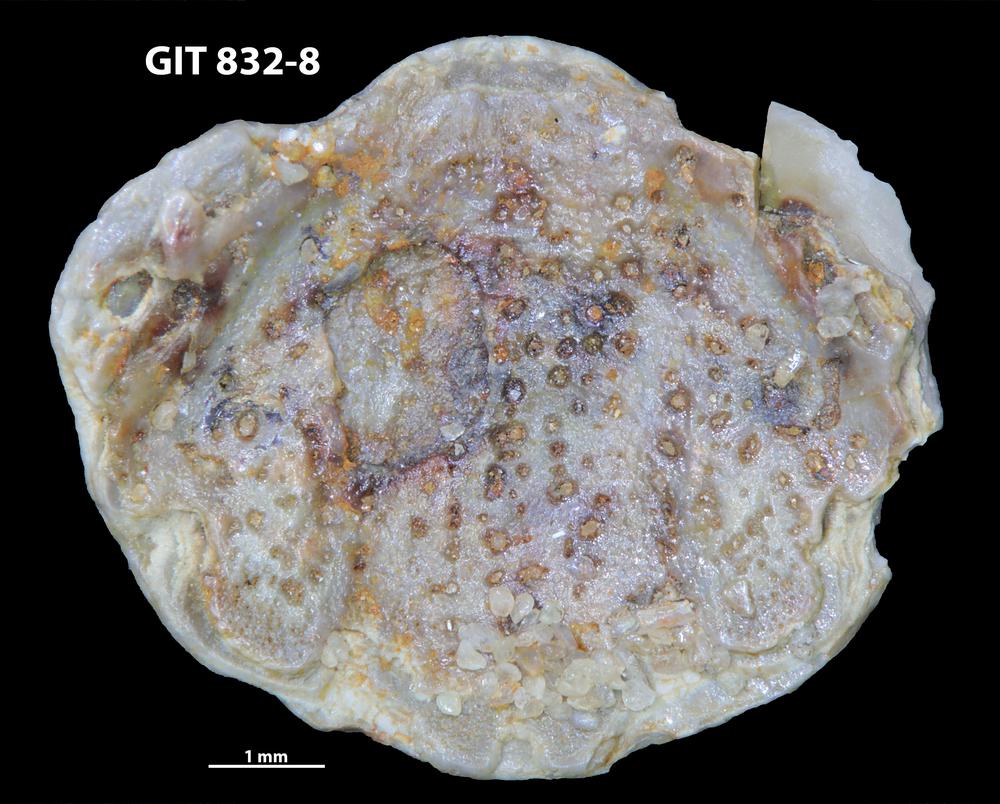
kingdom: Animalia
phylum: Brachiopoda
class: Lingulata
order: Lingulida
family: Obolidae
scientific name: Obolidae
